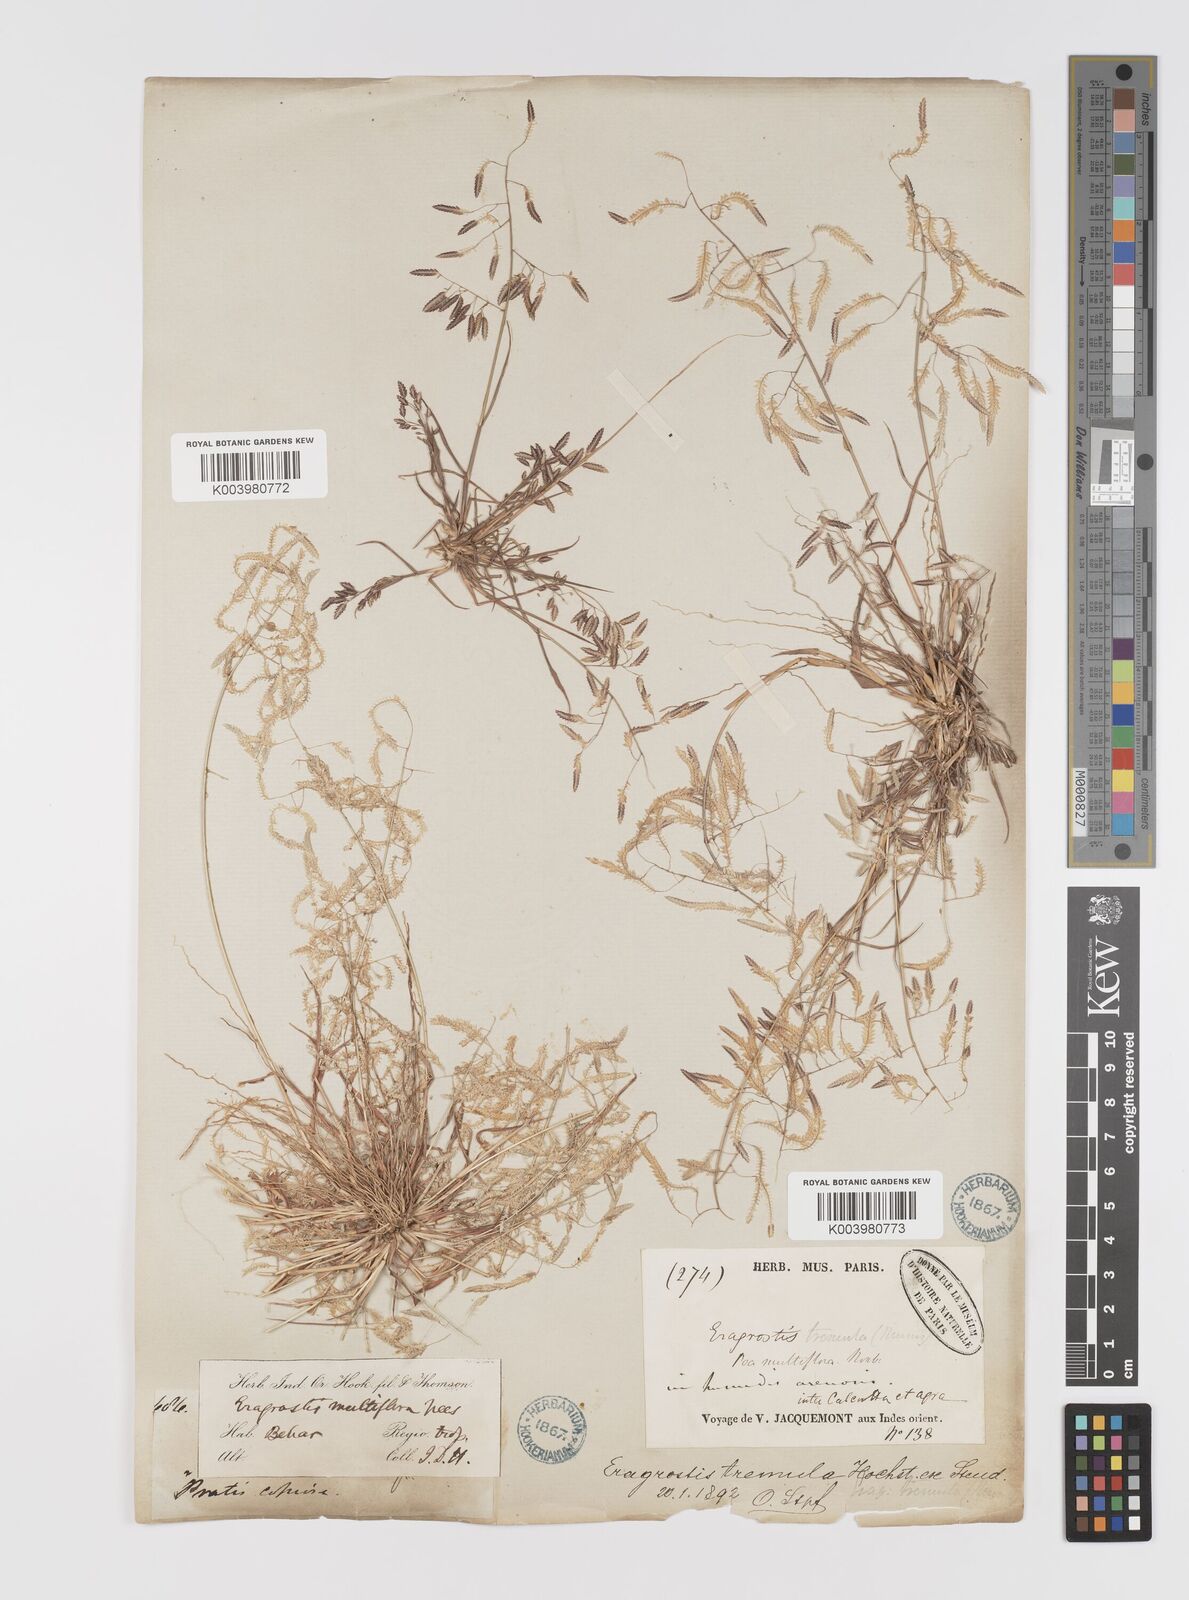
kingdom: Plantae
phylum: Tracheophyta
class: Liliopsida
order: Poales
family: Poaceae
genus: Eragrostis
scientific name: Eragrostis tremula
